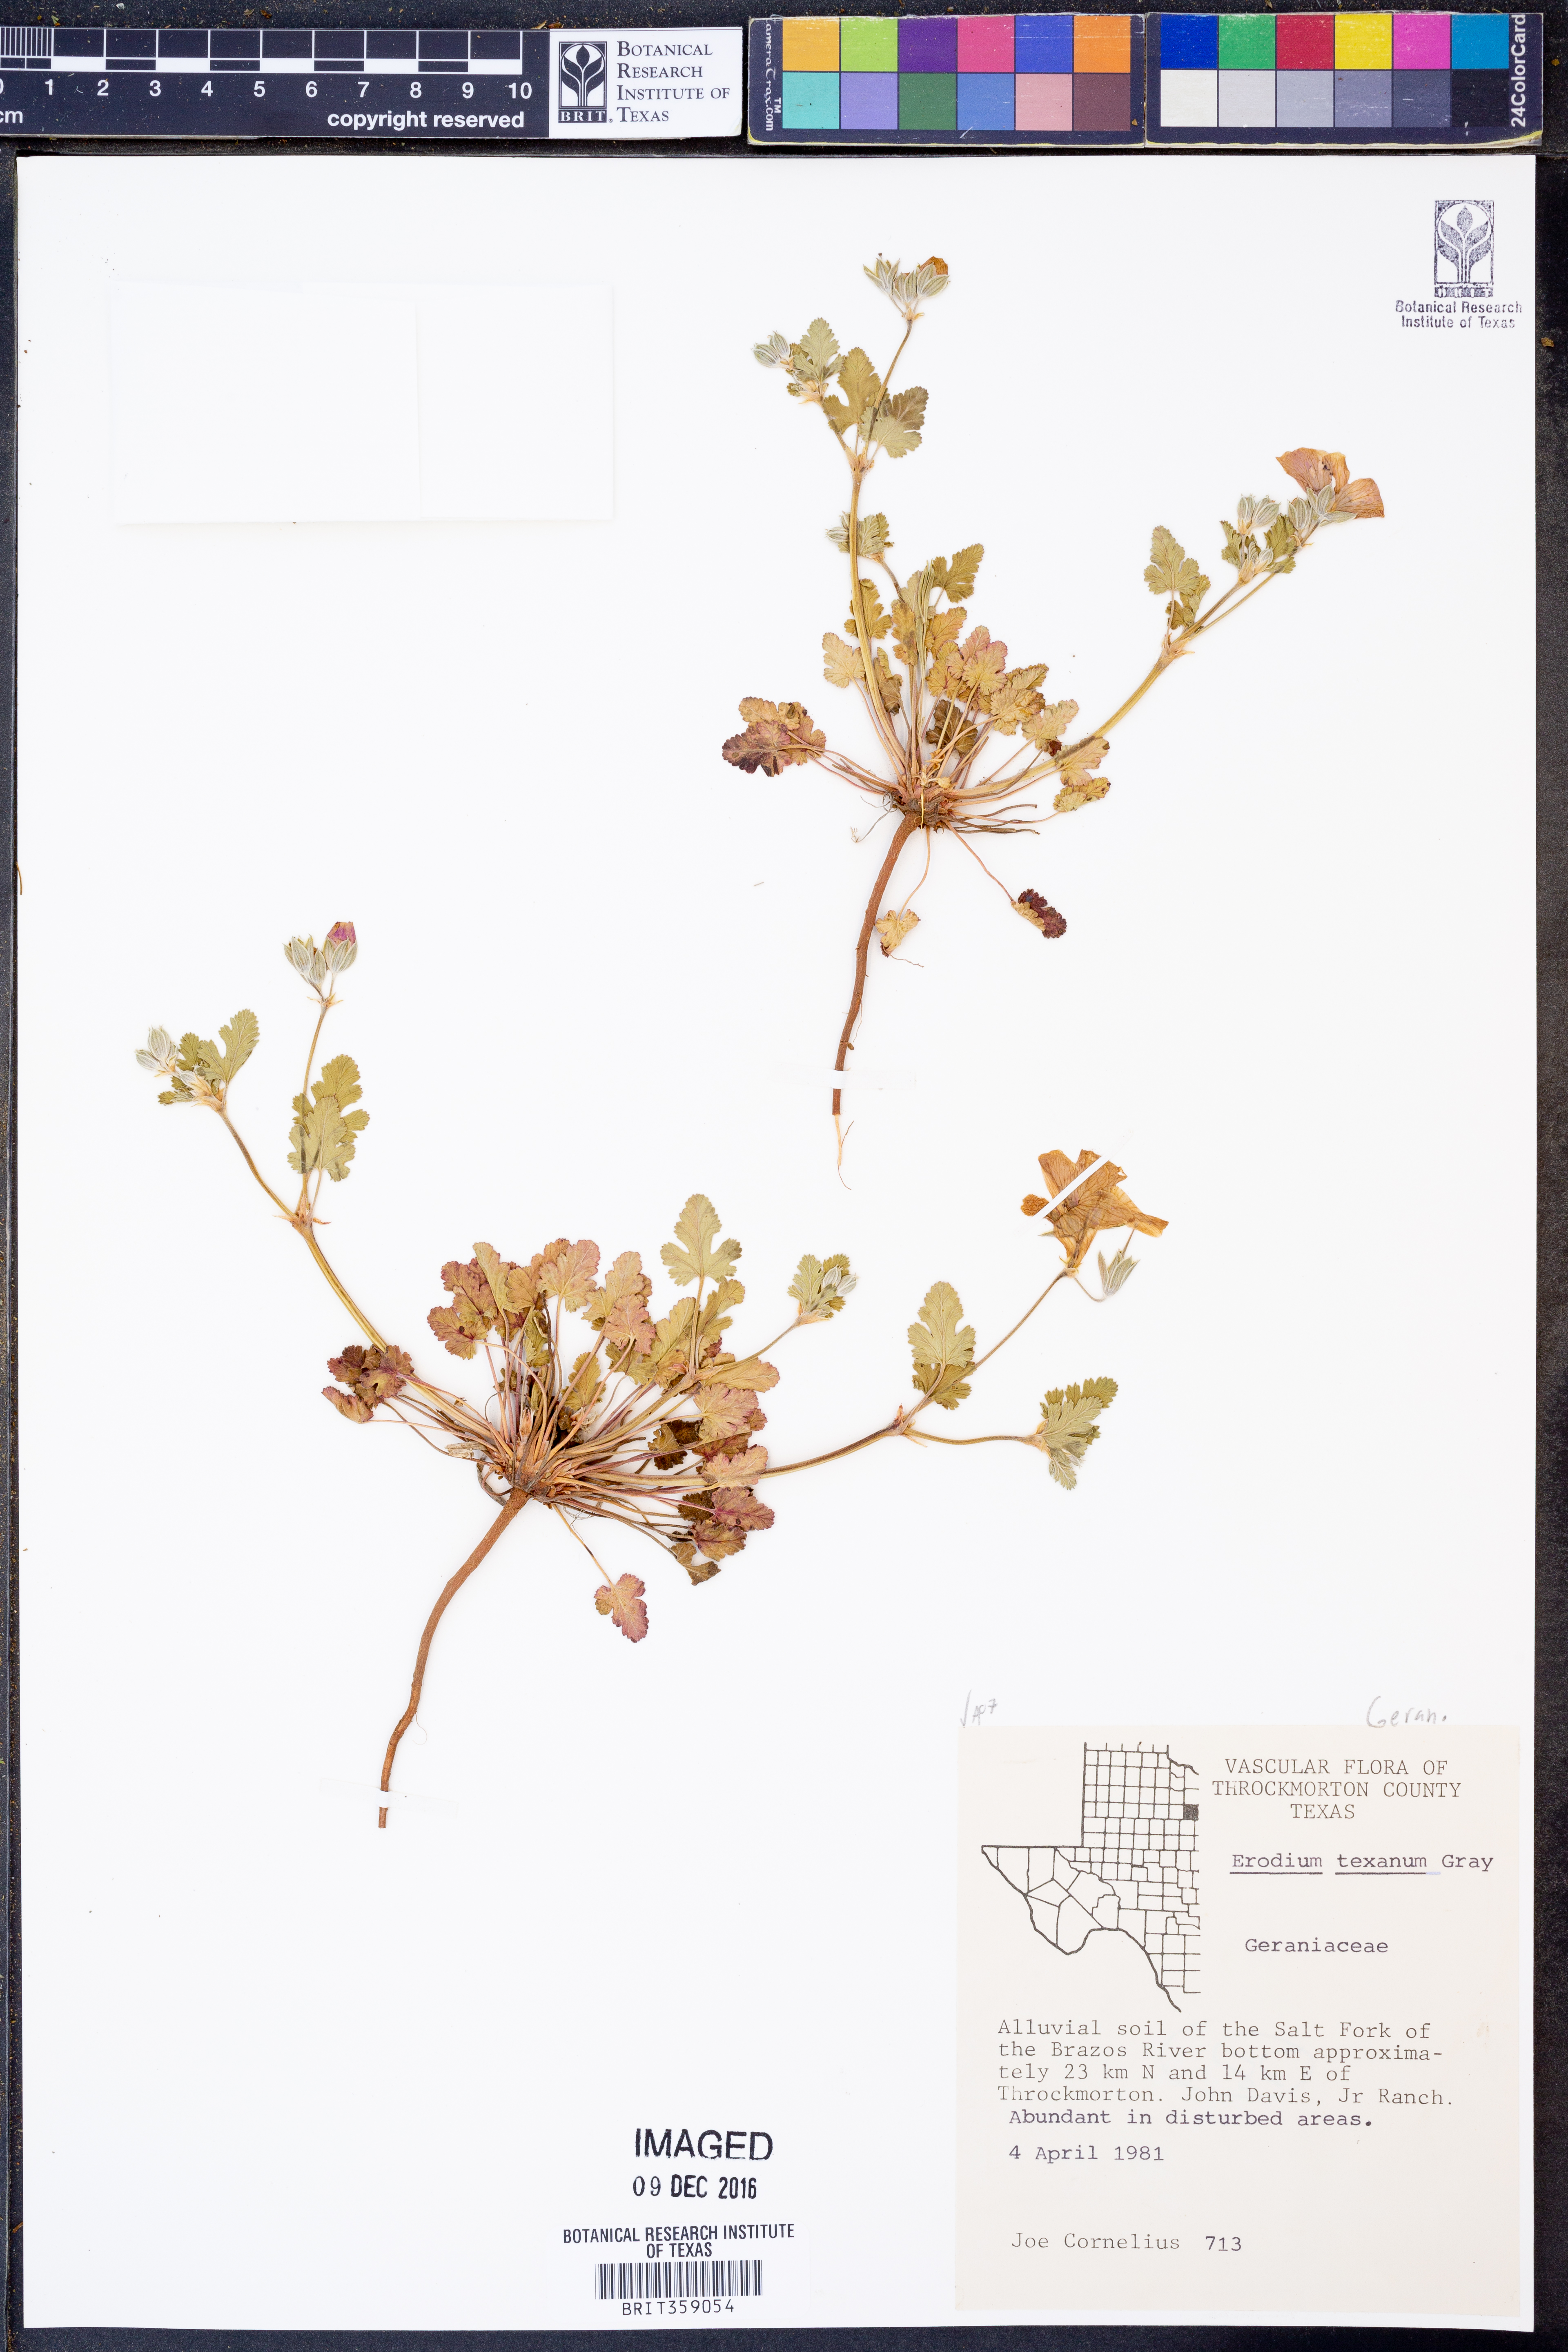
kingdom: Plantae
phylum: Tracheophyta
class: Magnoliopsida
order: Geraniales
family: Geraniaceae
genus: Erodium
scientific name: Erodium texanum
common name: Texas stork's-bill
